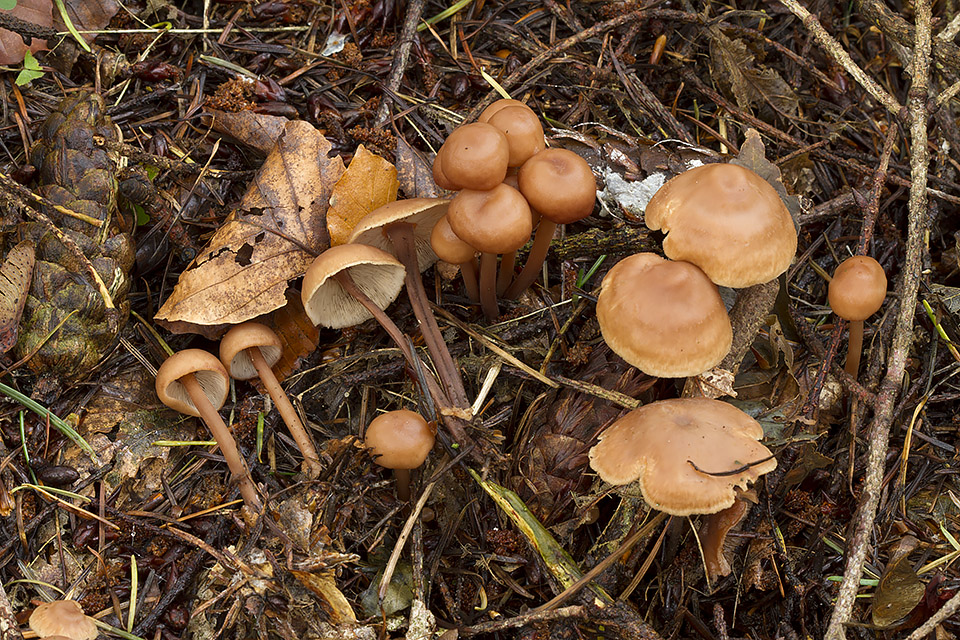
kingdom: Fungi
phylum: Basidiomycota
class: Agaricomycetes
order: Agaricales
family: Omphalotaceae
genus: Connopus
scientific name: Connopus acervatus
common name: tue-fladhat
